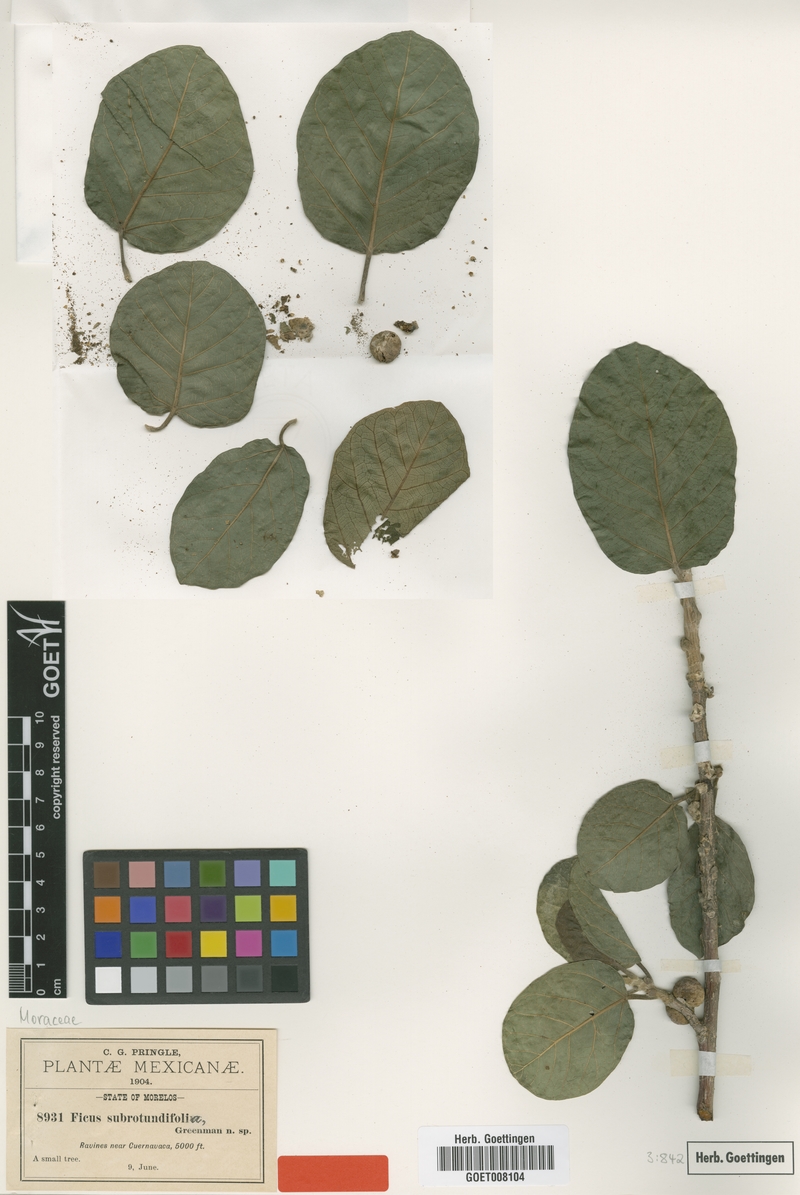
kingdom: Plantae
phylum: Tracheophyta
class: Magnoliopsida
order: Rosales
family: Moraceae
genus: Ficus
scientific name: Ficus cotinifolia
